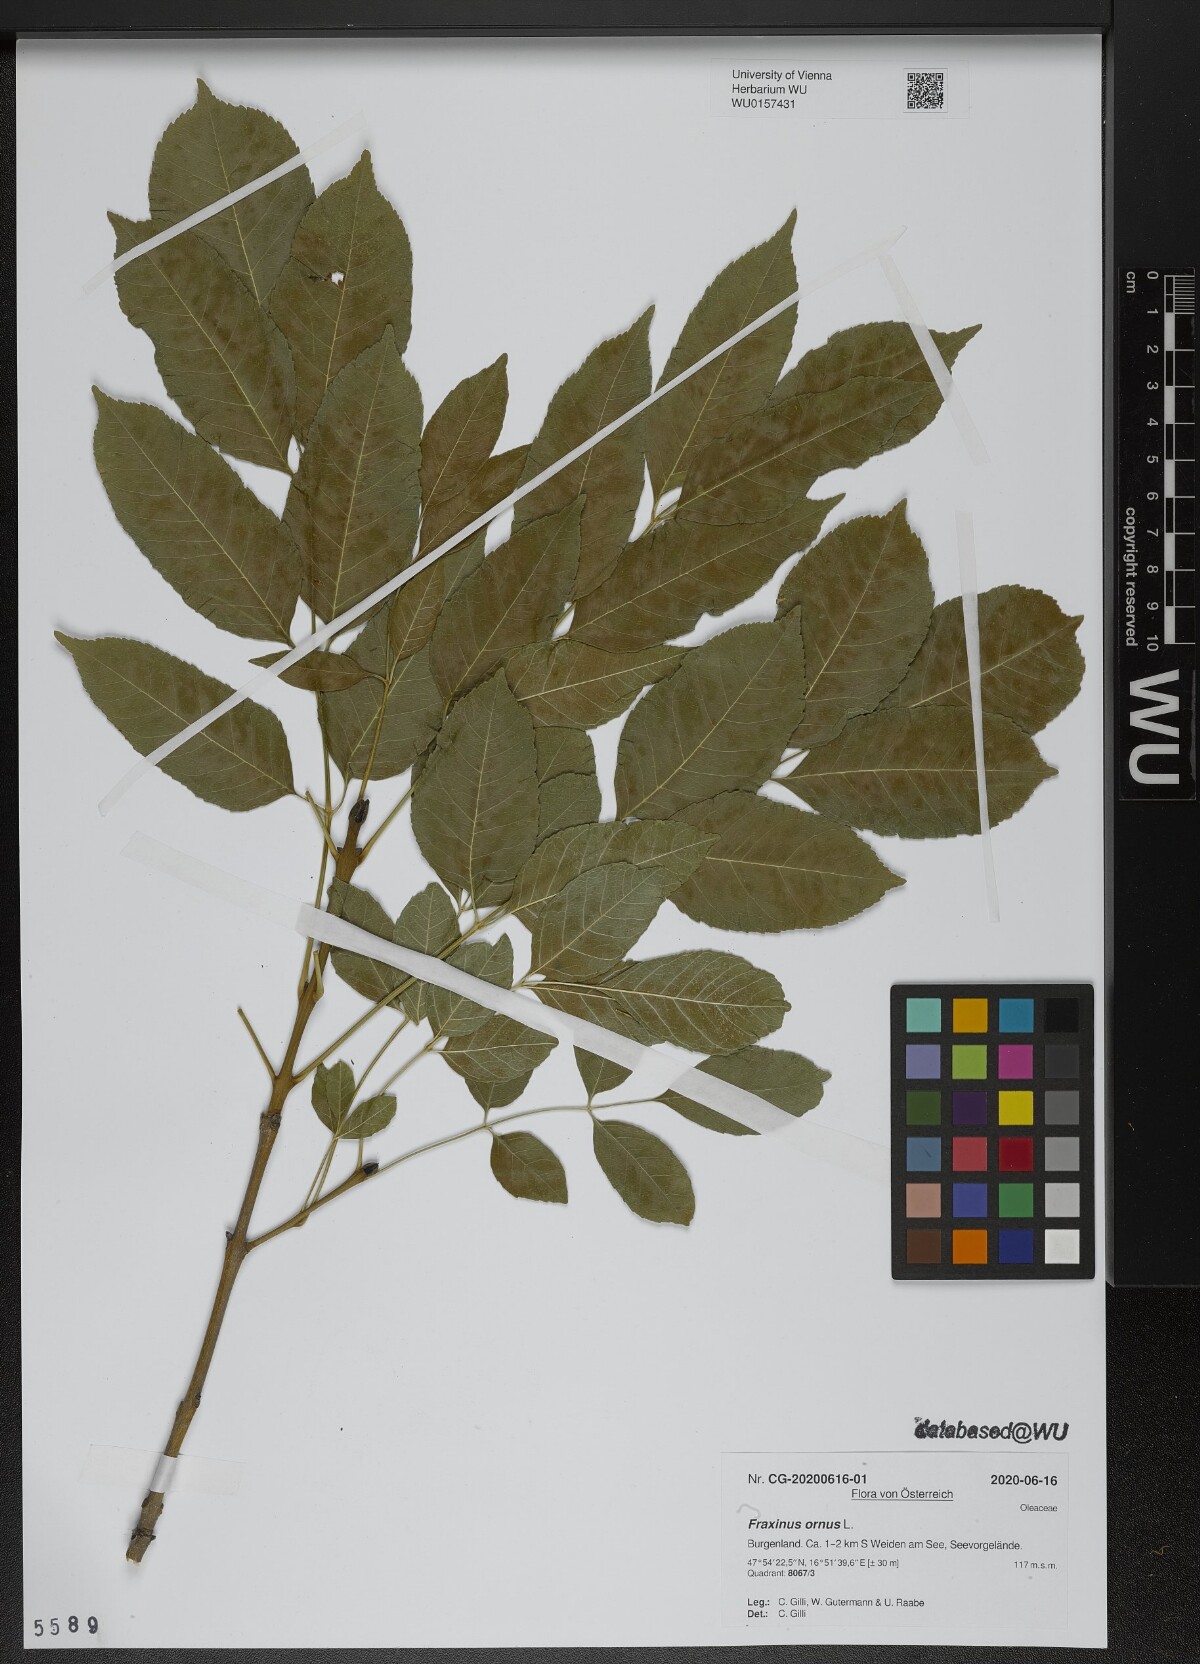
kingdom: Plantae
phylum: Tracheophyta
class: Magnoliopsida
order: Lamiales
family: Oleaceae
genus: Fraxinus
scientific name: Fraxinus ornus
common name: Manna ash
